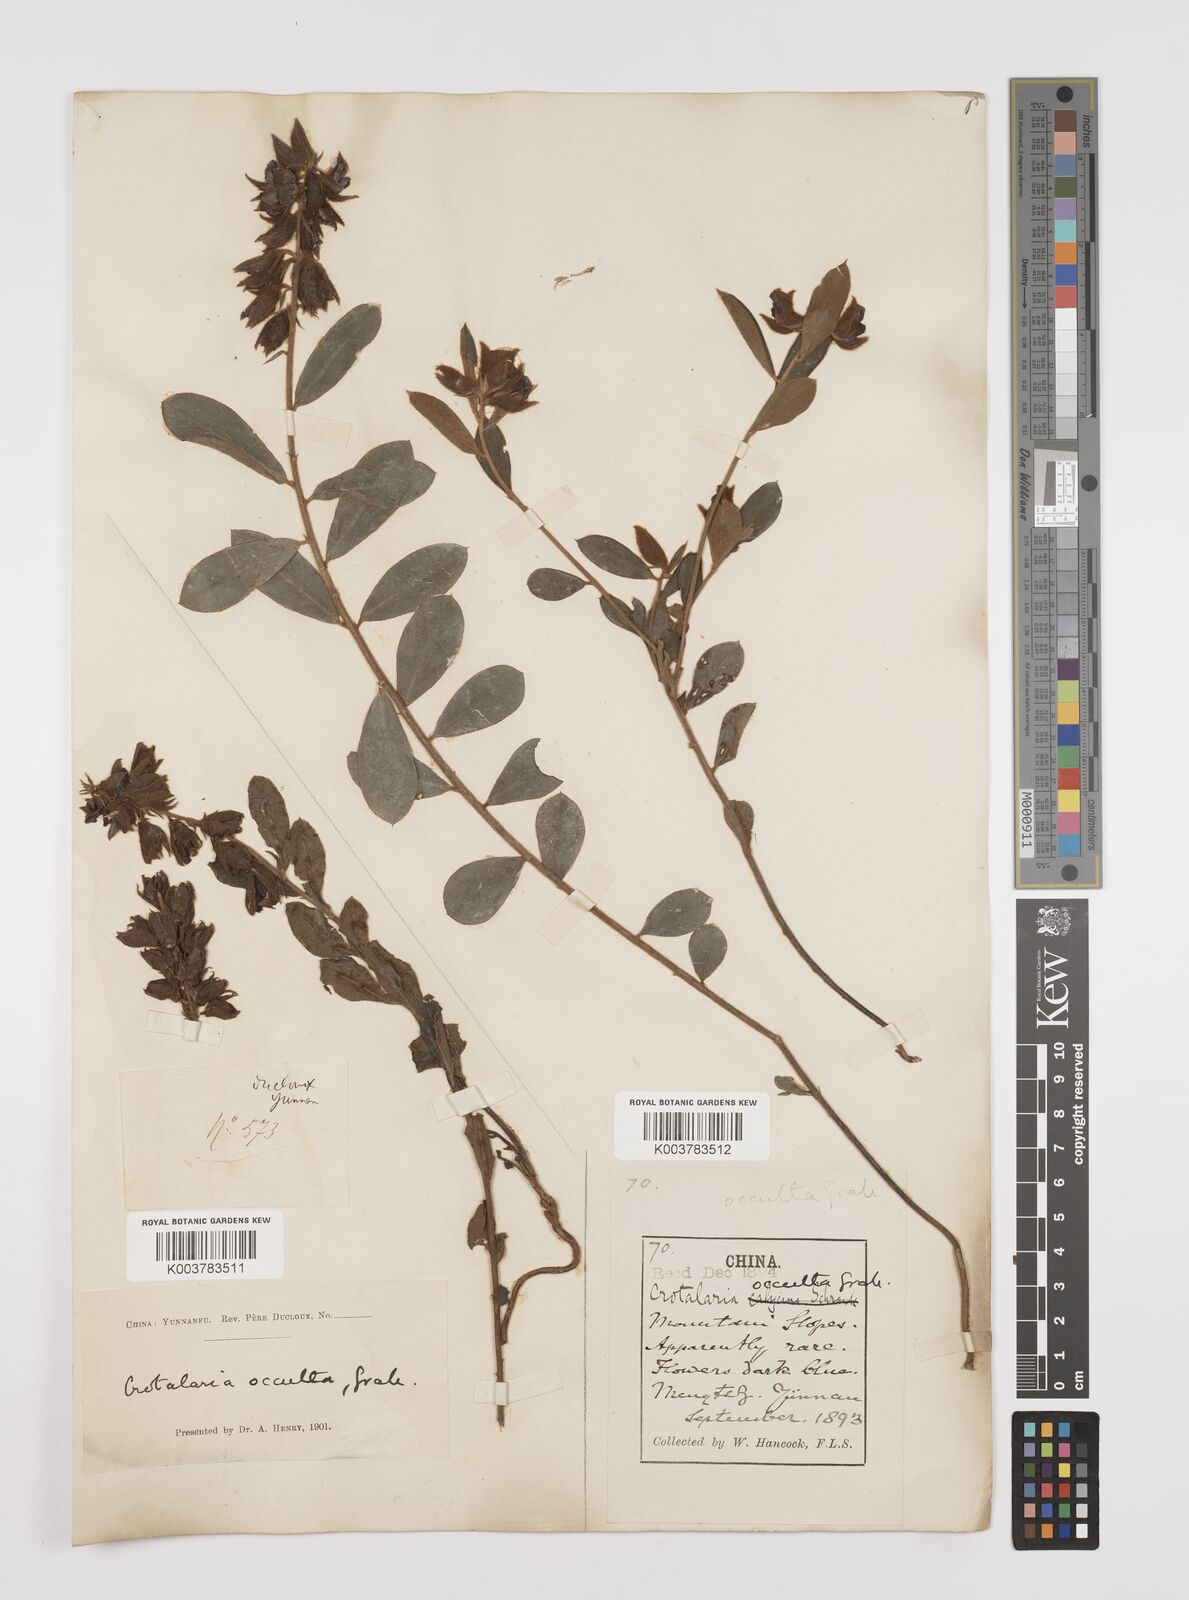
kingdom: Plantae
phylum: Tracheophyta
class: Magnoliopsida
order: Fabales
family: Fabaceae
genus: Crotalaria
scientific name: Crotalaria occulta
